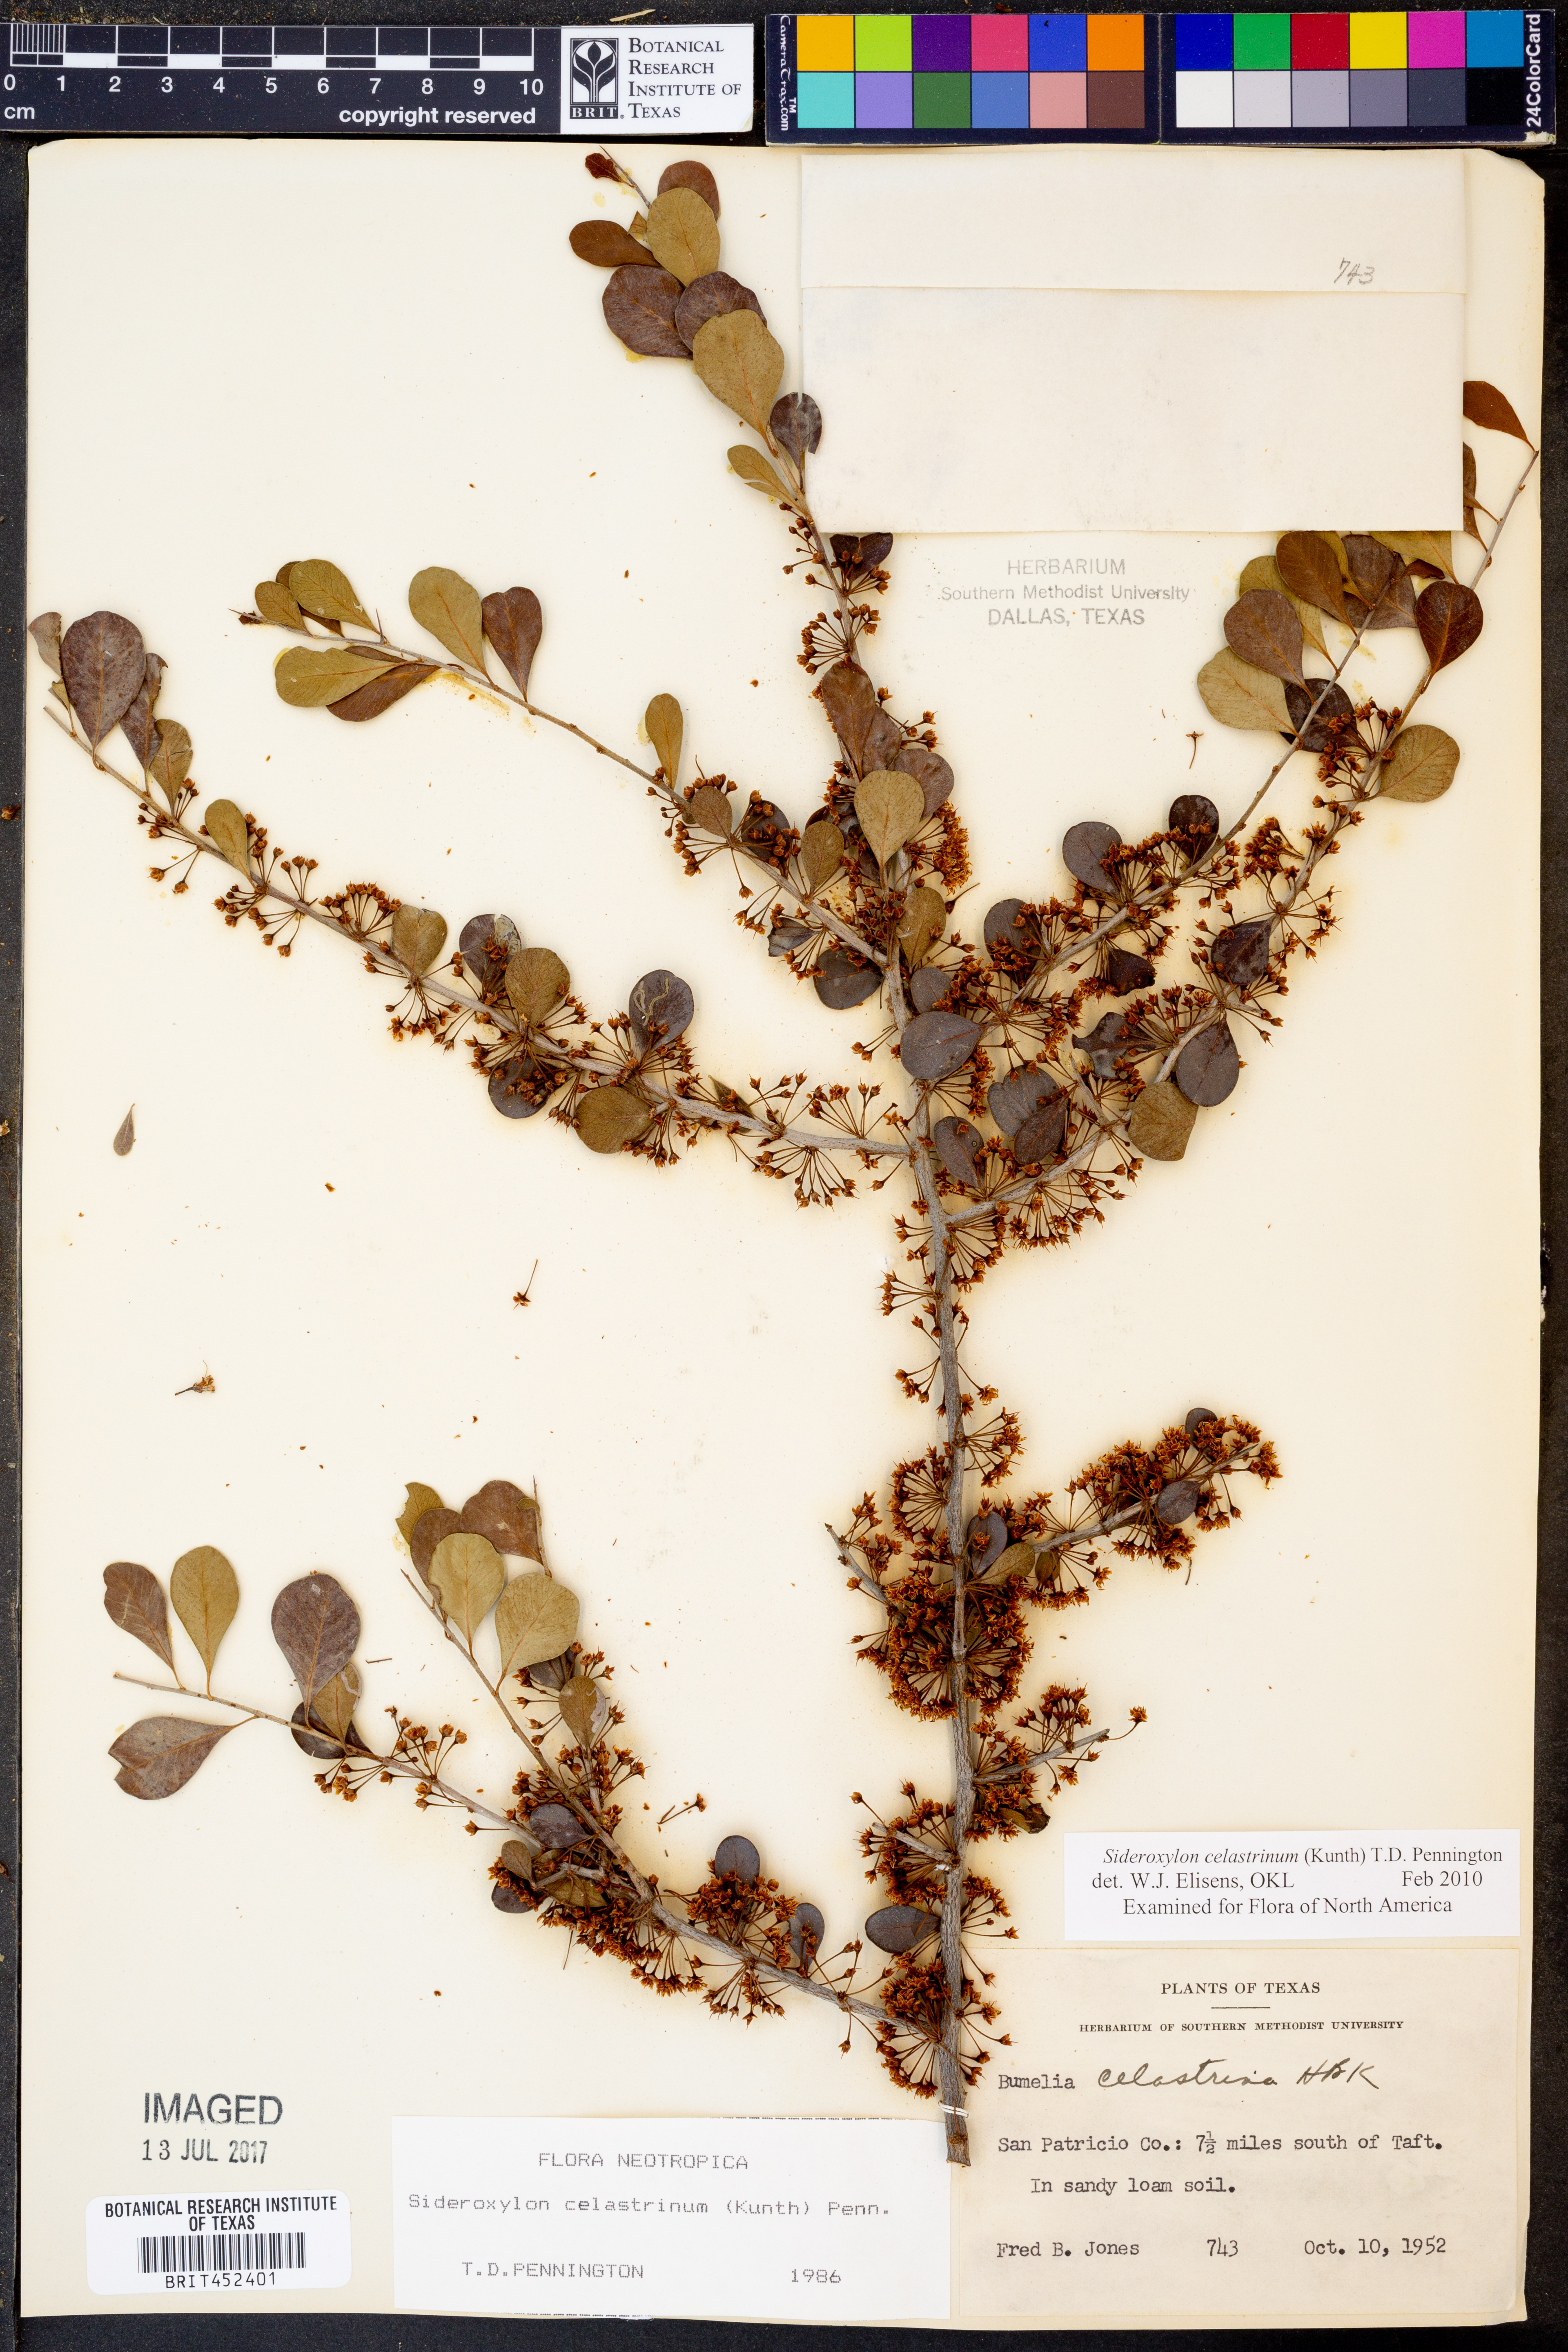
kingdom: Plantae
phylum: Tracheophyta
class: Magnoliopsida
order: Ericales
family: Sapotaceae
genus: Sideroxylon
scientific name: Sideroxylon celastrinum
